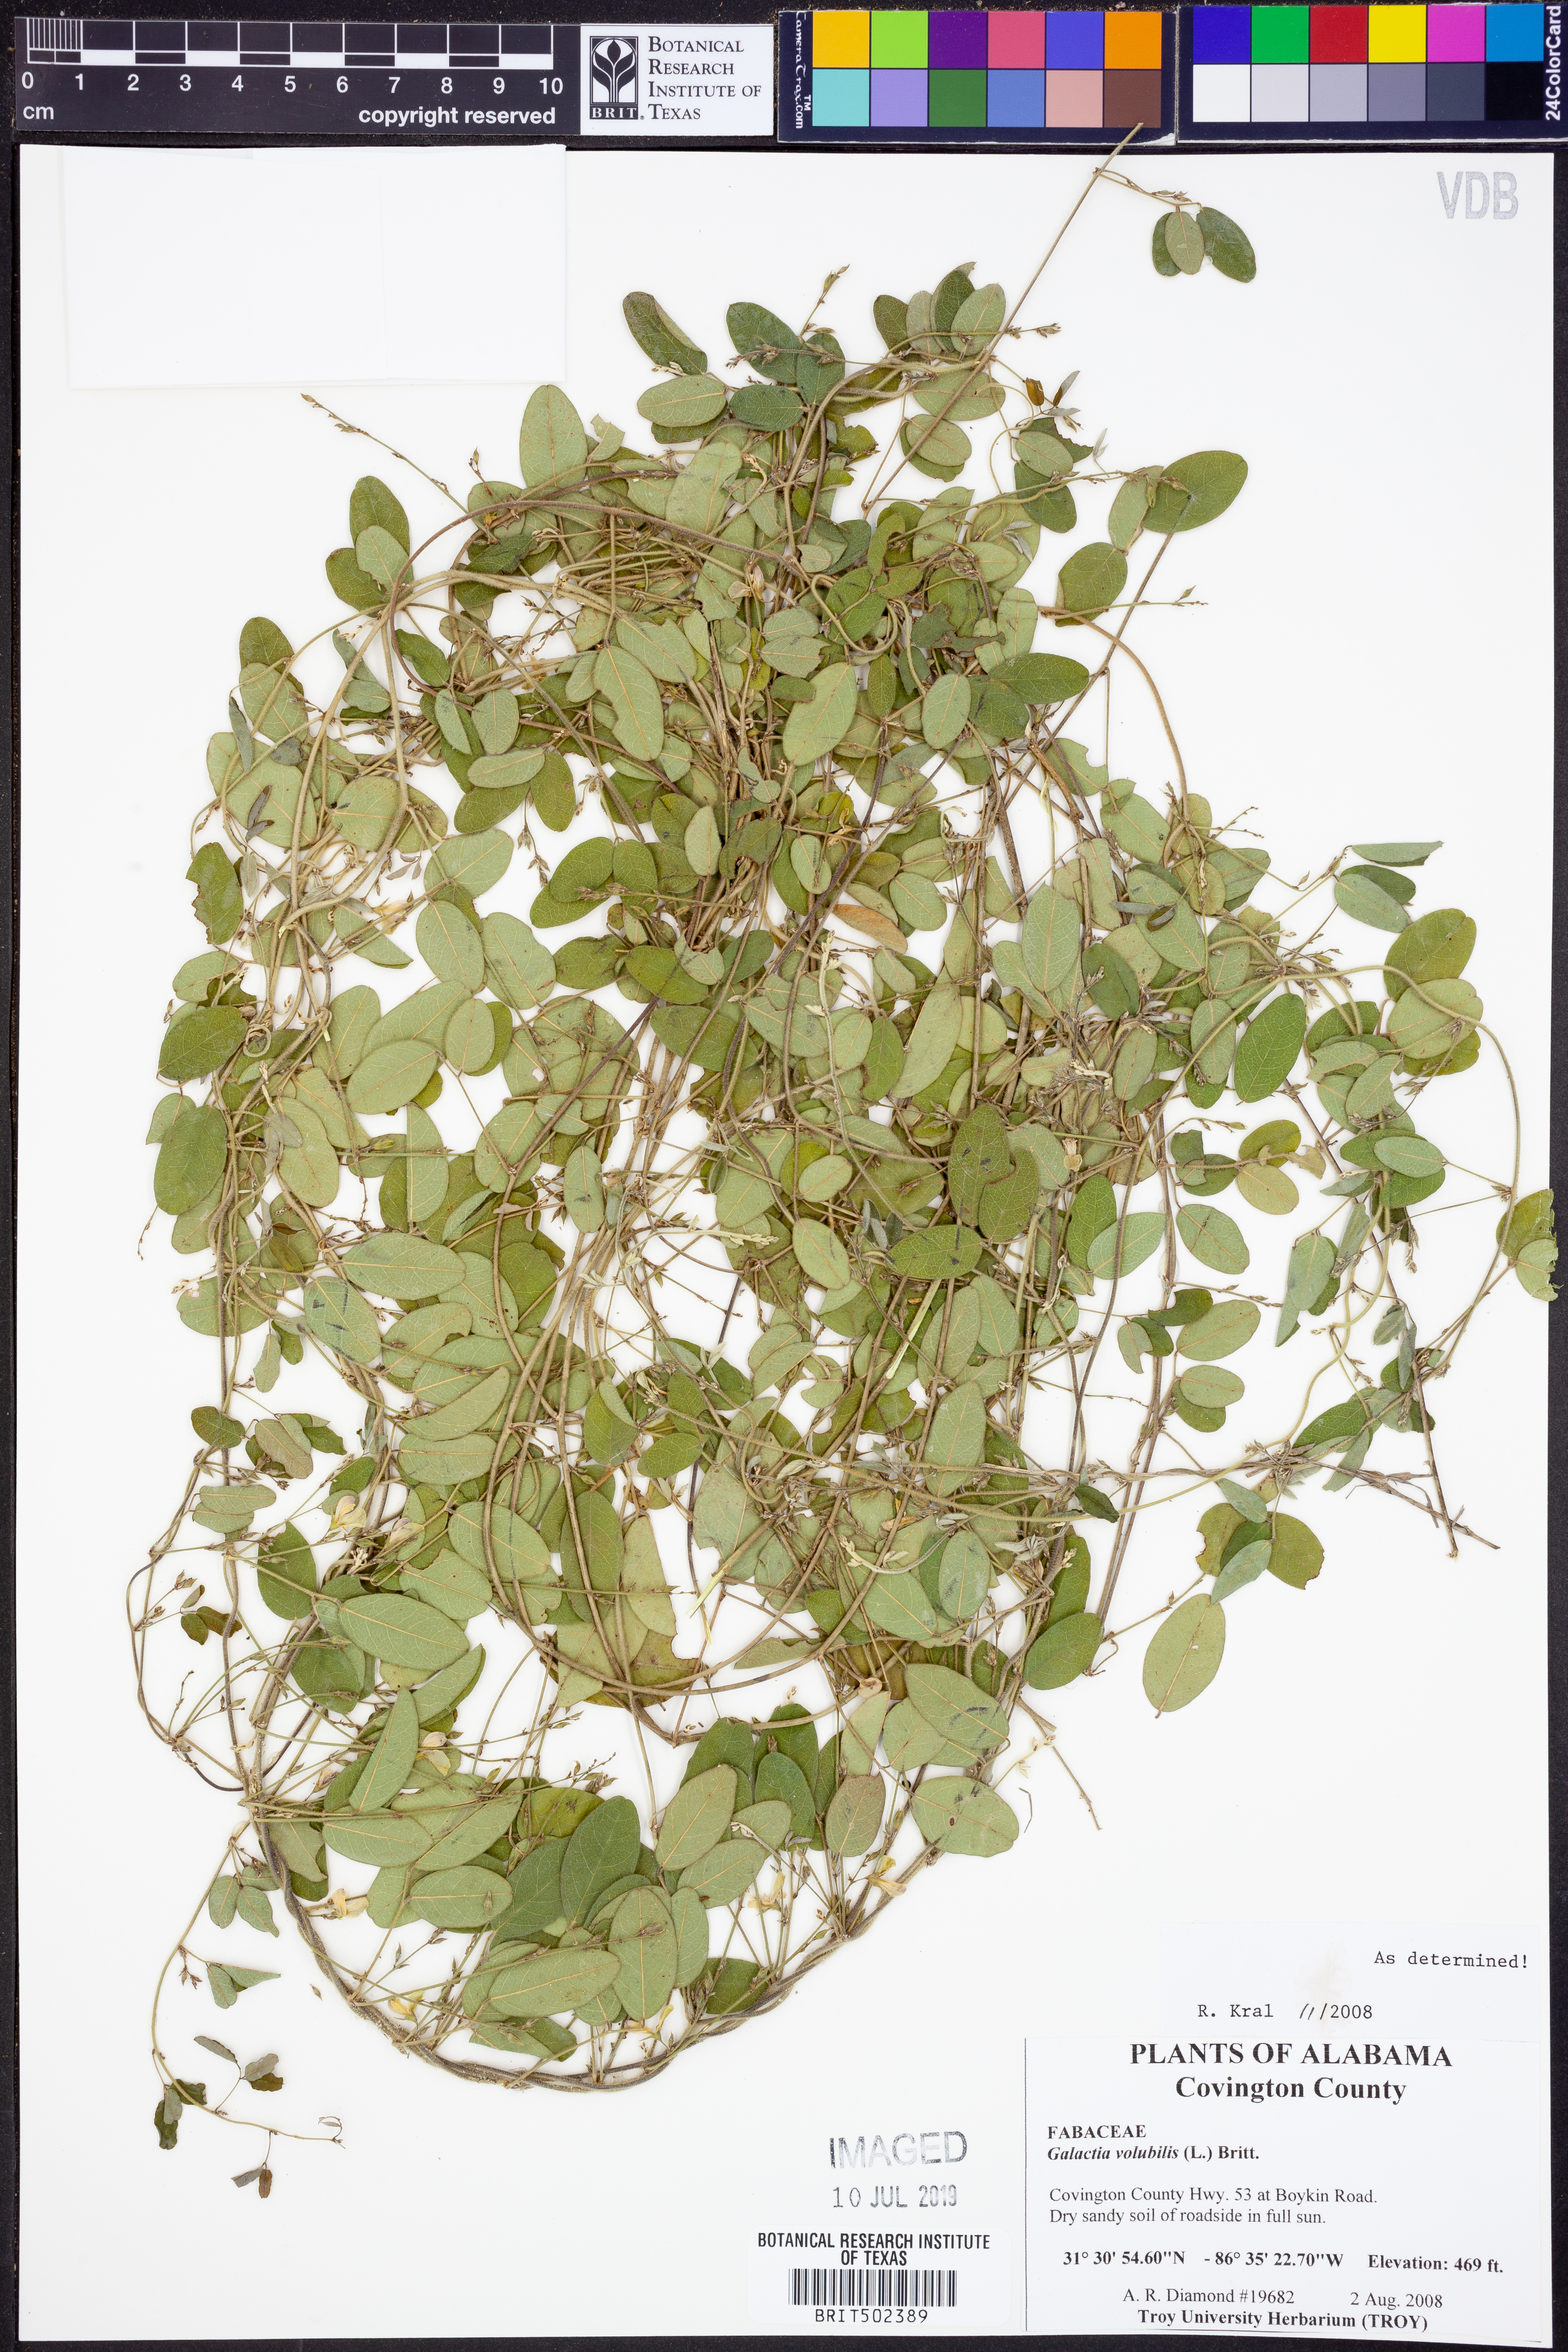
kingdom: Plantae
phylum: Tracheophyta
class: Magnoliopsida
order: Fabales
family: Fabaceae
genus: Galactia
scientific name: Galactia volubilis
